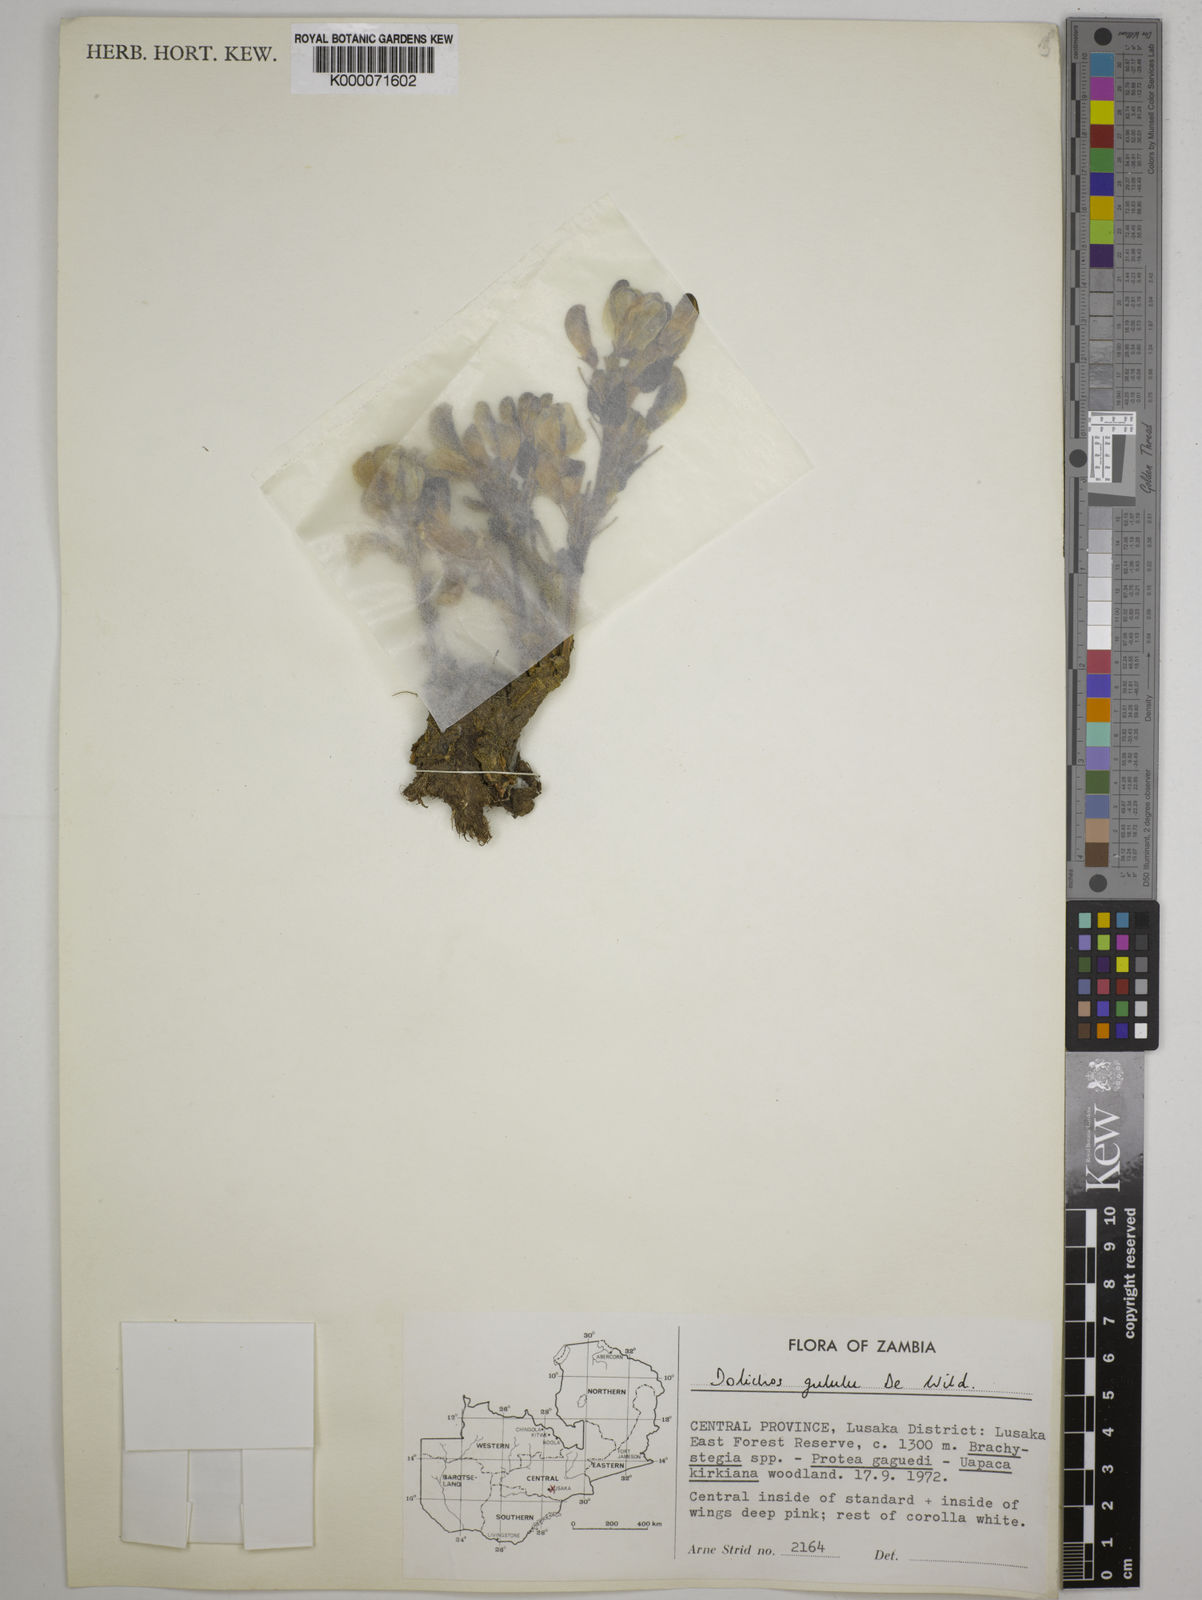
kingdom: Plantae
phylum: Tracheophyta
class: Magnoliopsida
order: Fabales
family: Fabaceae
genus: Dolichos
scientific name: Dolichos gululu
